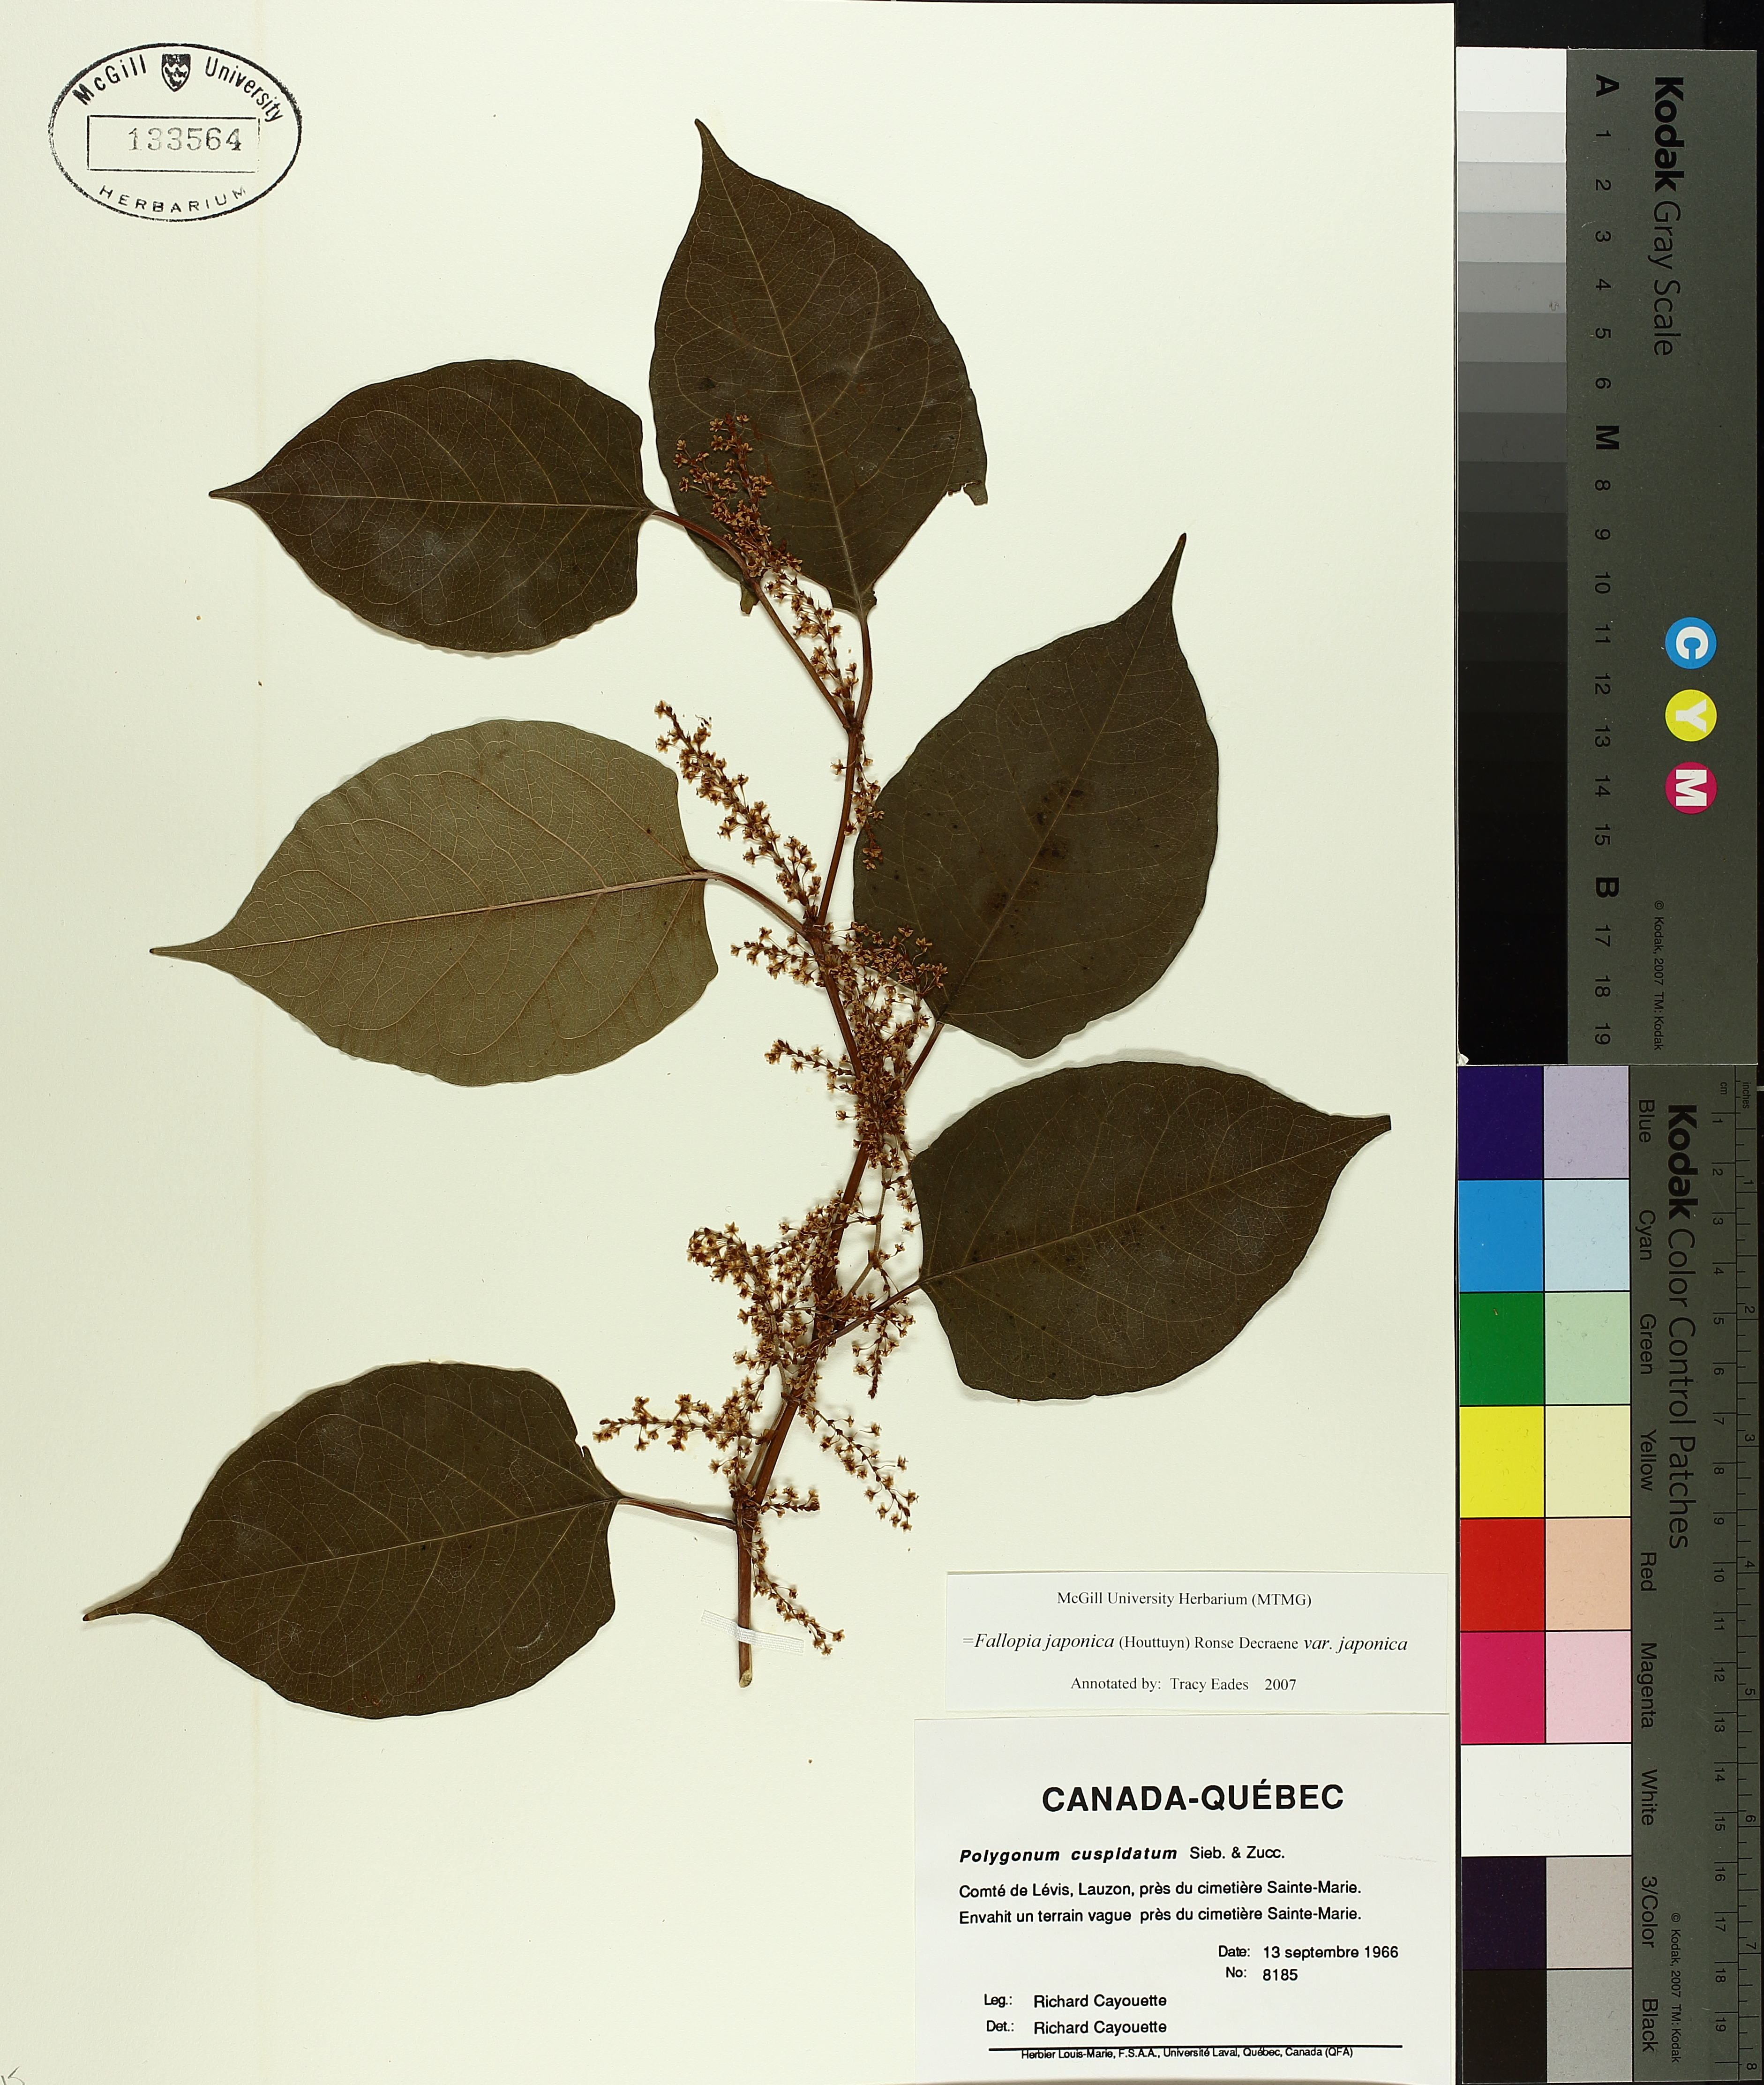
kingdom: Plantae
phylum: Tracheophyta
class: Magnoliopsida
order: Caryophyllales
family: Polygonaceae
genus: Reynoutria
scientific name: Reynoutria japonica
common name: Japanese knotweed
